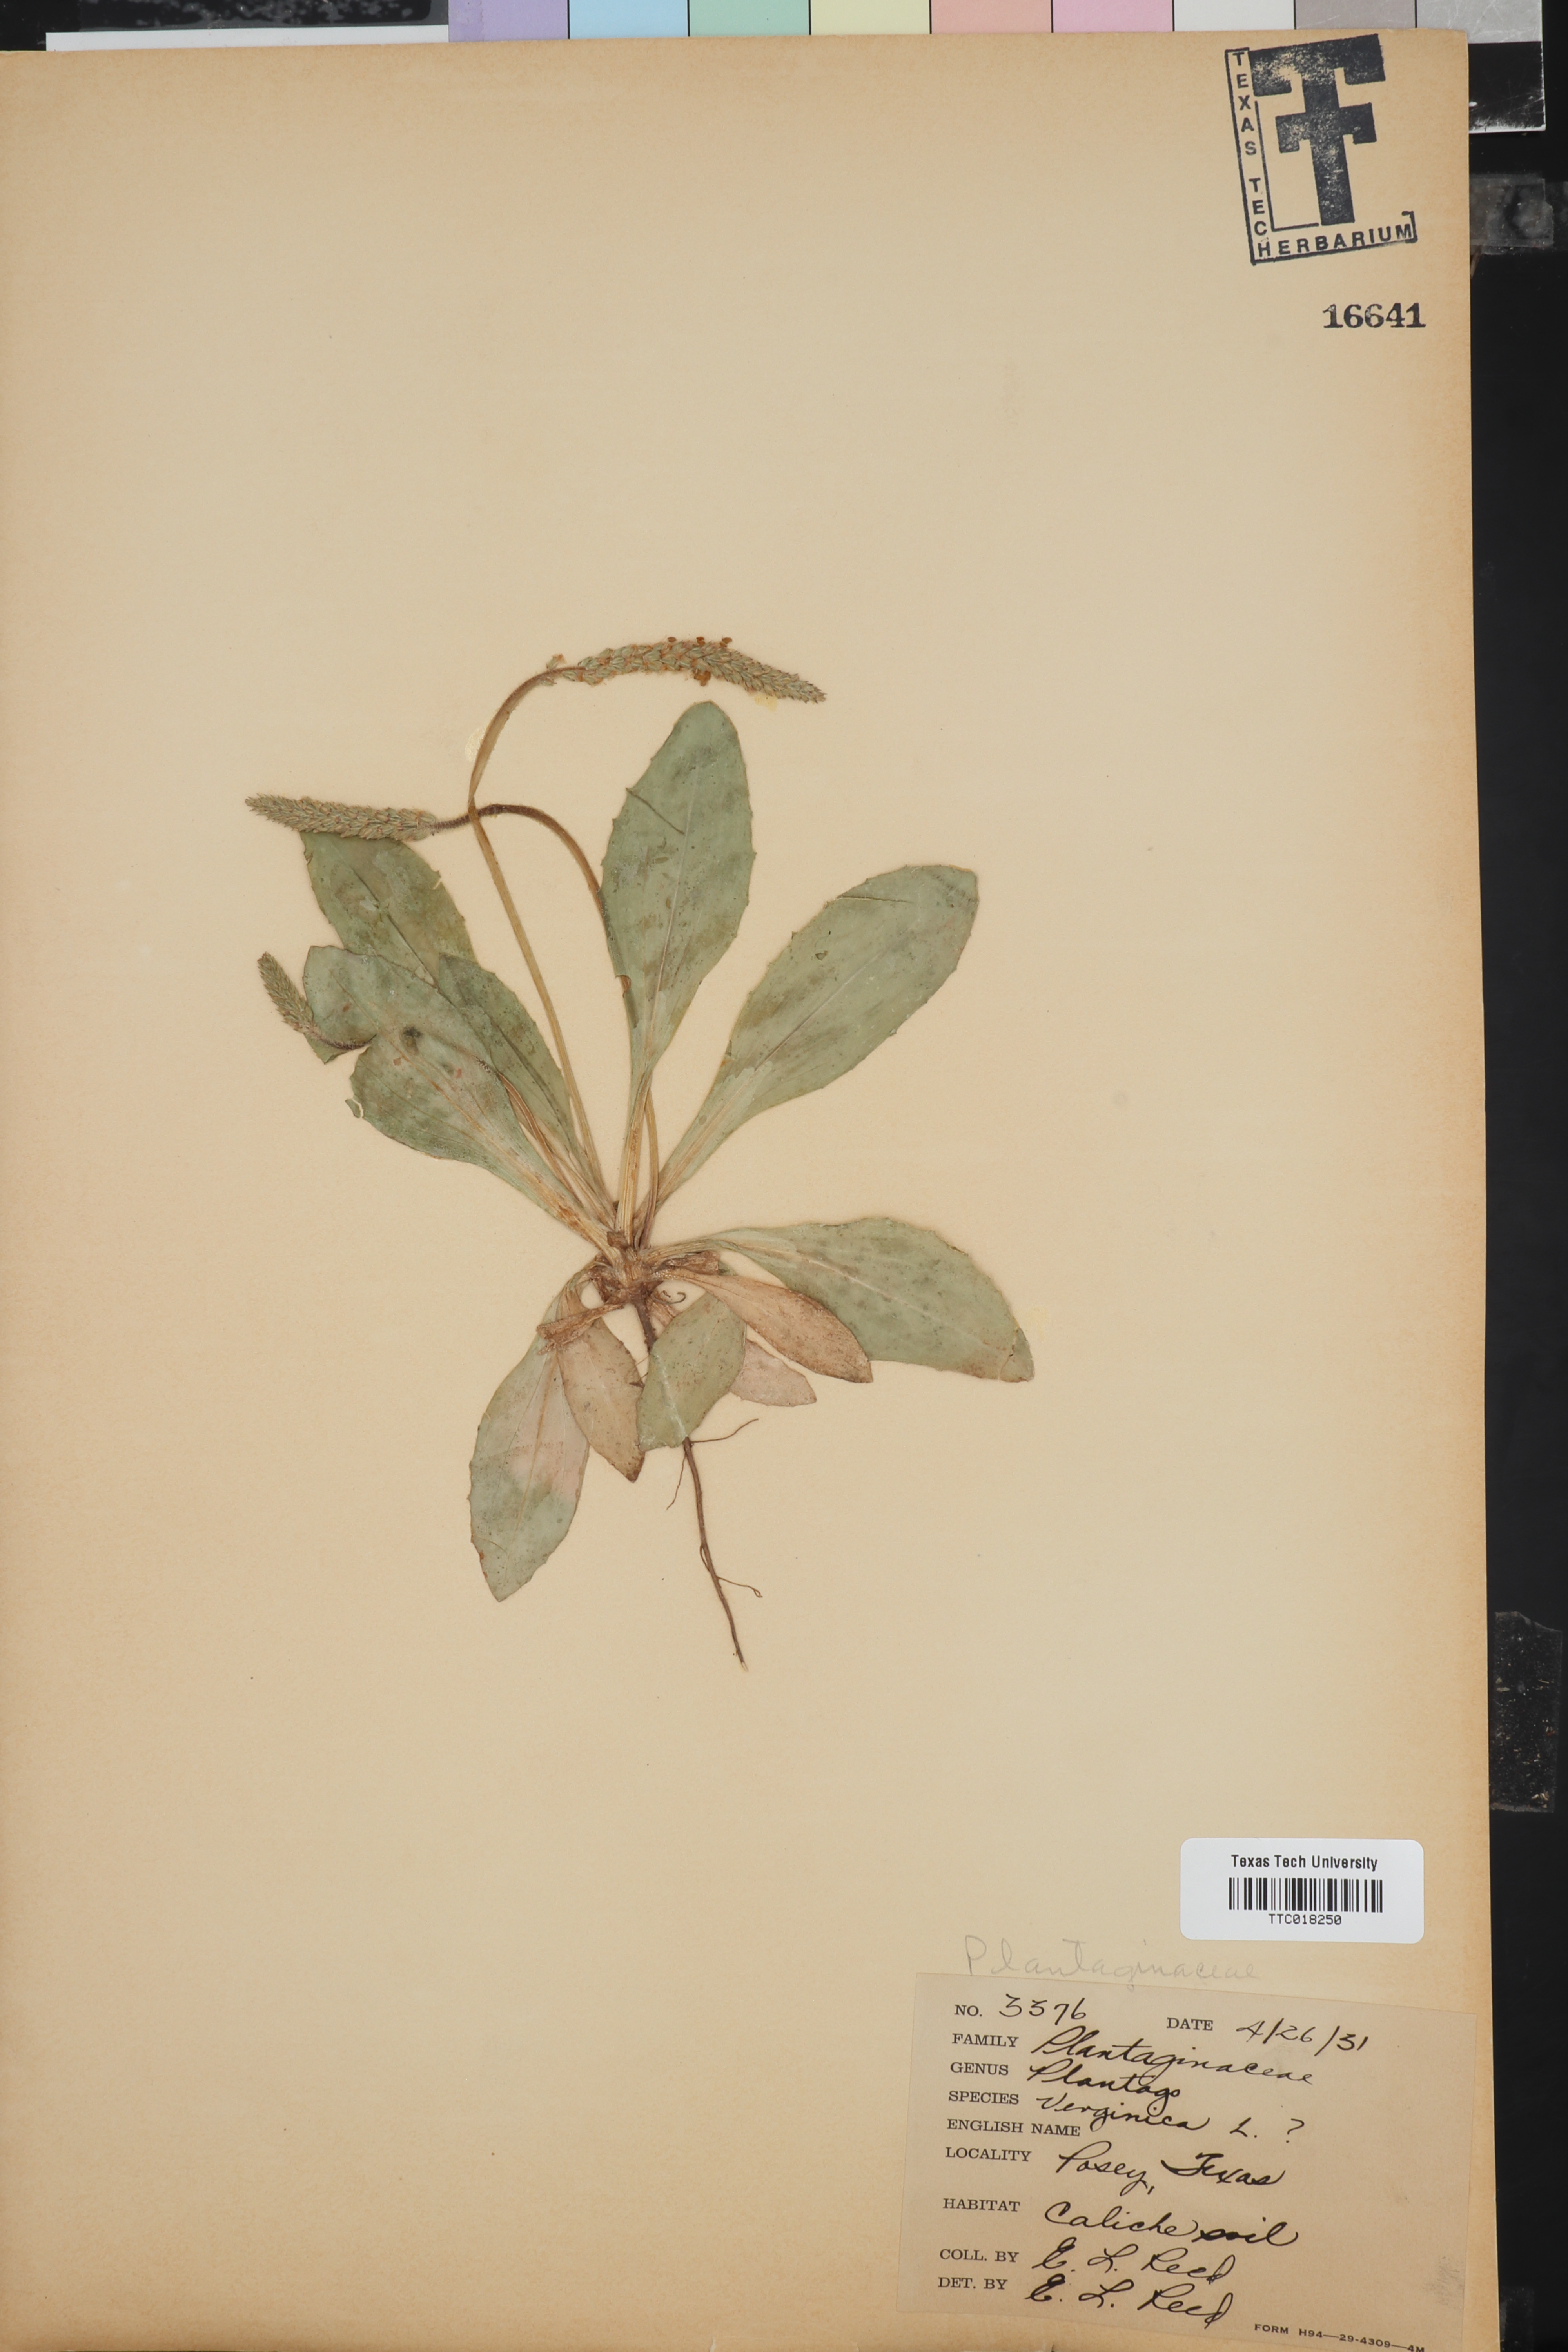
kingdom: Plantae
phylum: Tracheophyta
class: Magnoliopsida
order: Lamiales
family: Plantaginaceae
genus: Plantago
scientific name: Plantago virginica
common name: Hoary plantain
